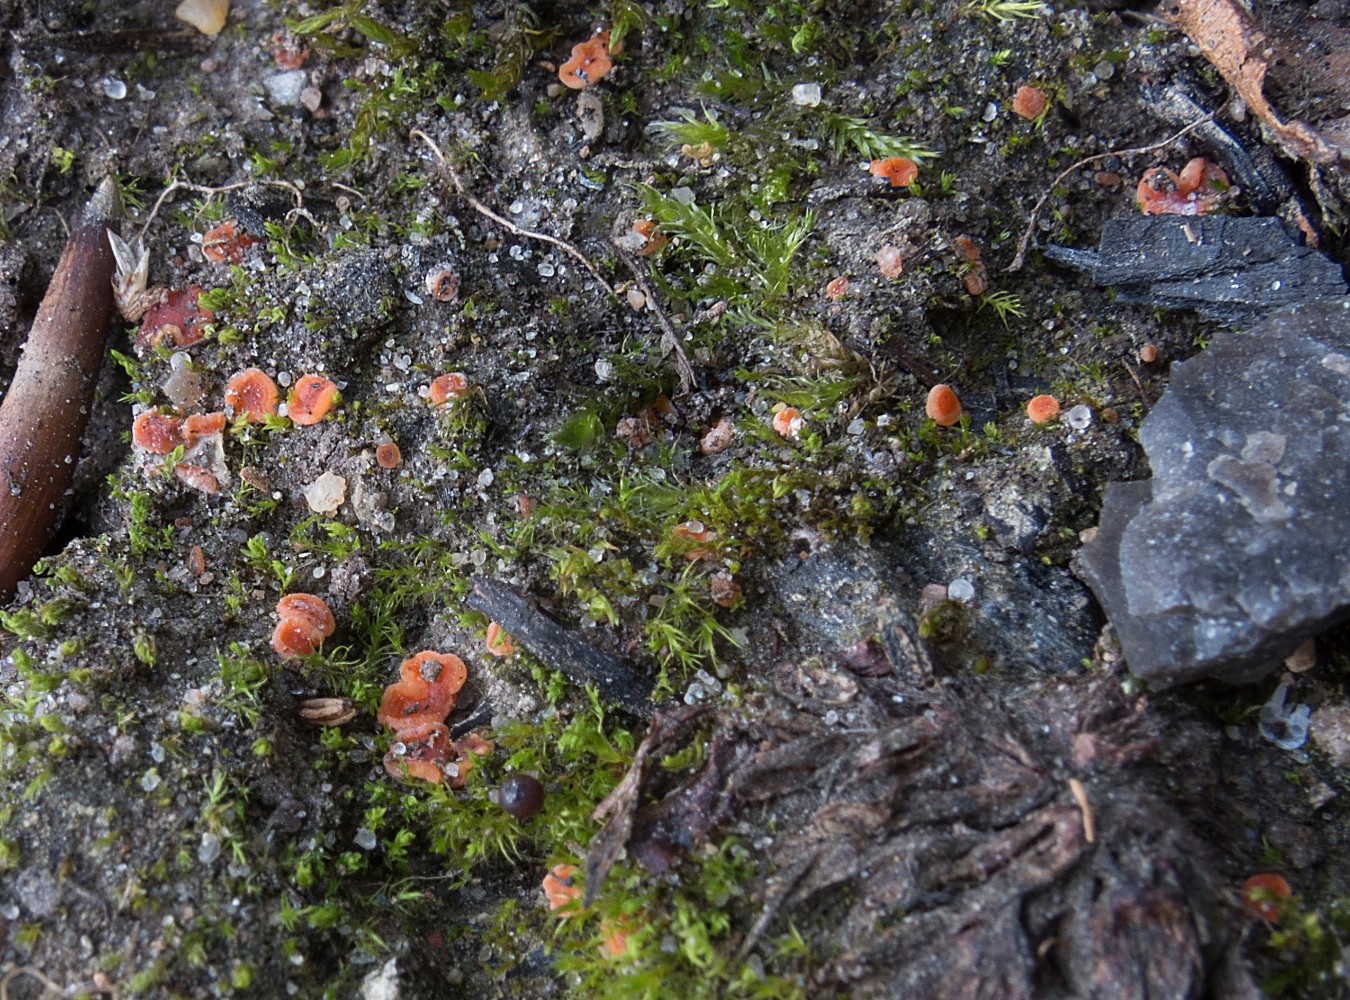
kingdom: Fungi
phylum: Ascomycota
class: Pezizomycetes
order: Pezizales
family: Pyronemataceae
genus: Pulvinula
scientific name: Pulvinula
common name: pudebæger
